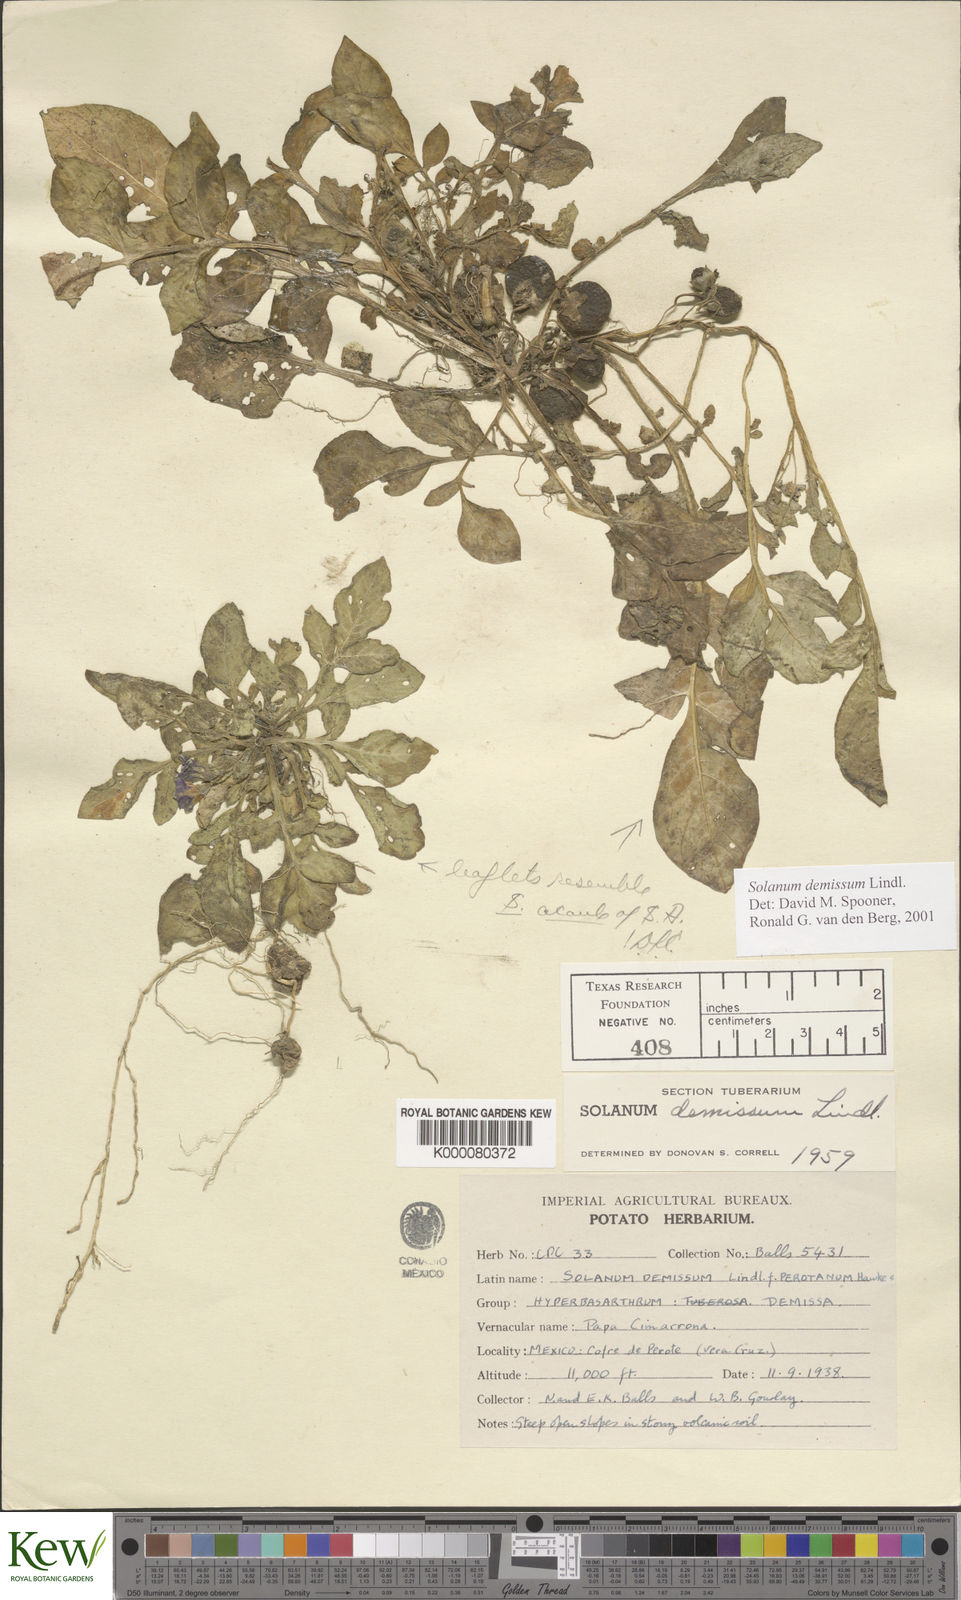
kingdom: Plantae
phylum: Tracheophyta
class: Magnoliopsida
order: Solanales
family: Solanaceae
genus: Solanum
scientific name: Solanum demissum
